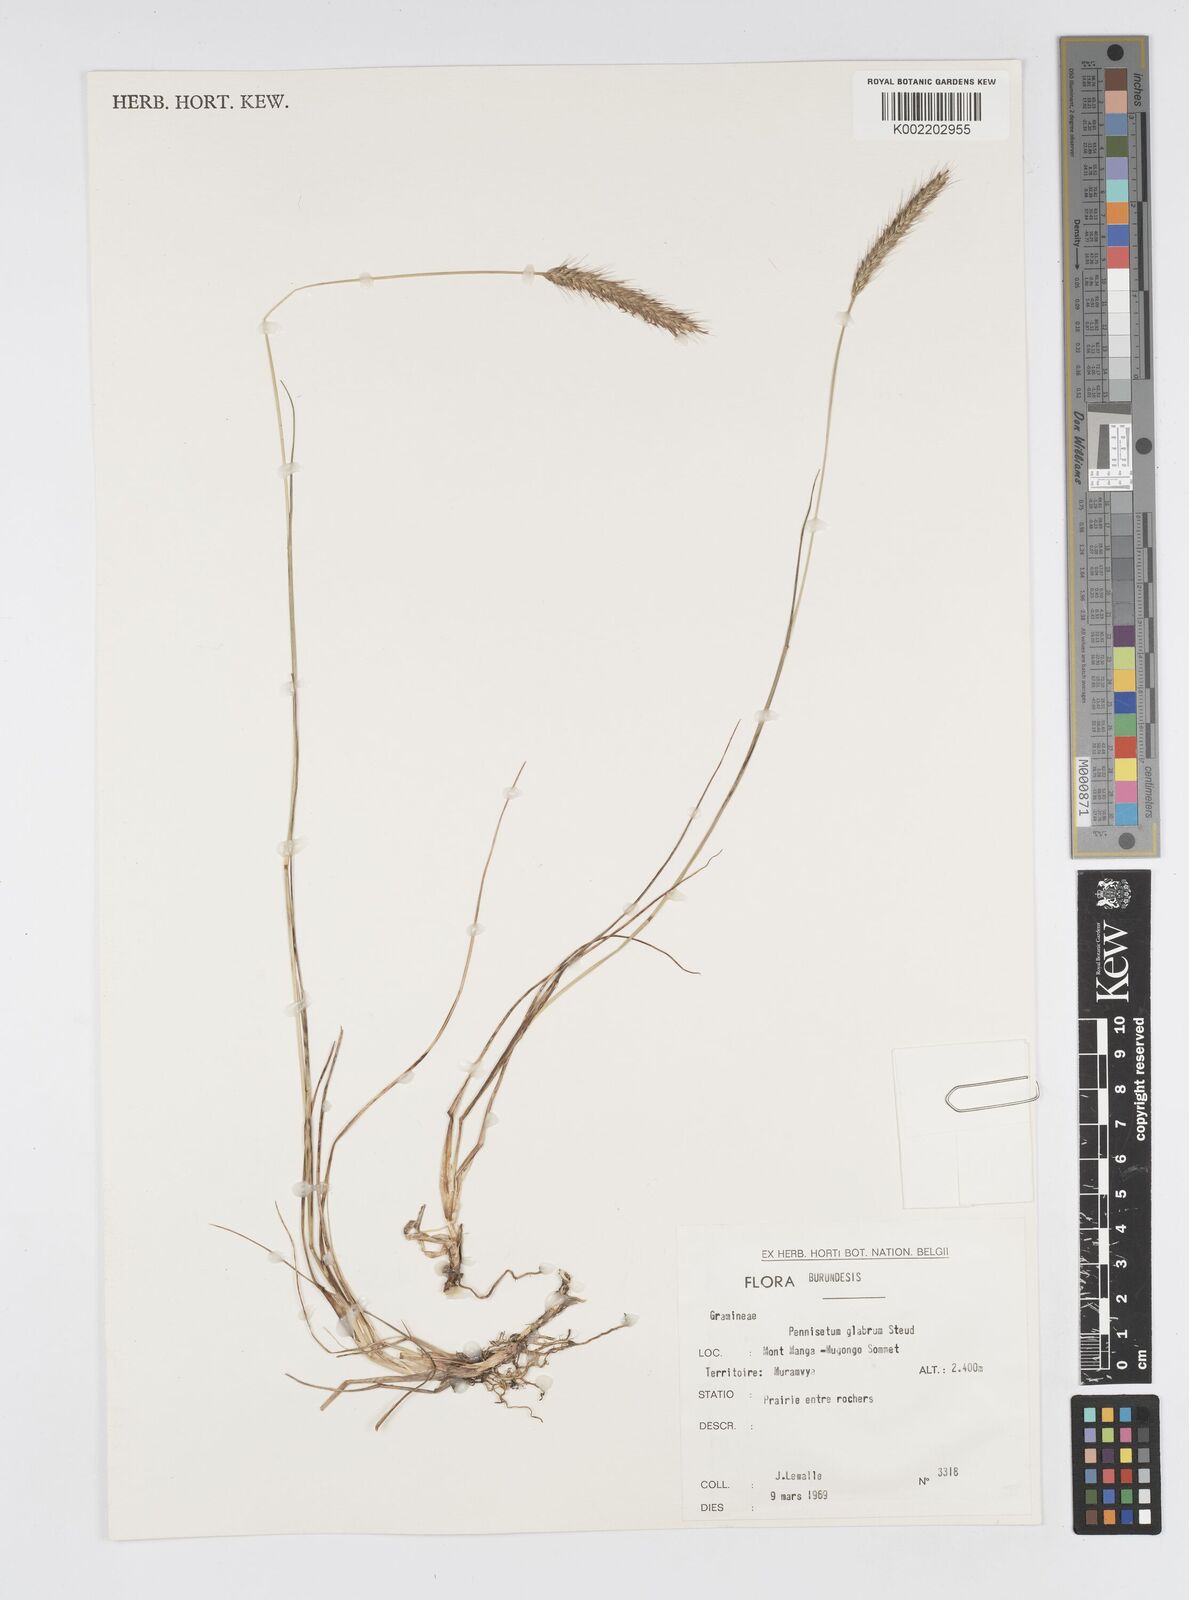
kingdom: Plantae
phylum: Tracheophyta
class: Liliopsida
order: Poales
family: Poaceae
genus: Cenchrus
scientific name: Cenchrus geniculatus
